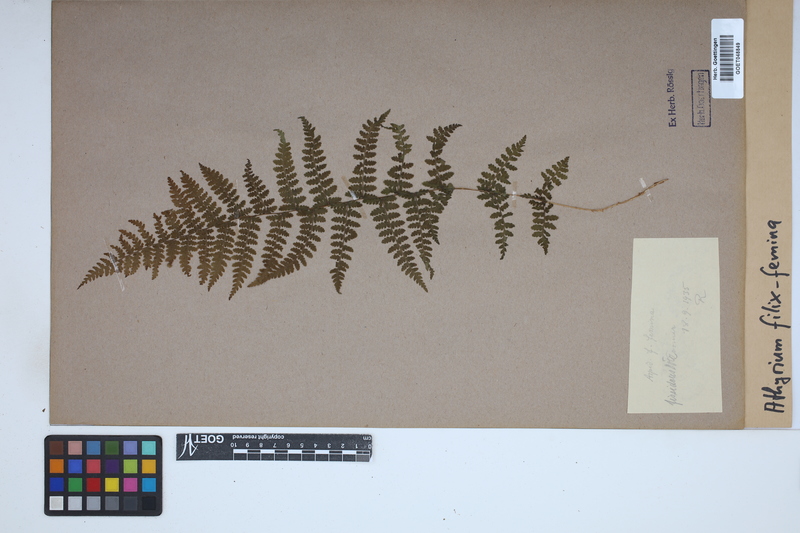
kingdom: Plantae
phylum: Tracheophyta
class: Polypodiopsida
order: Polypodiales
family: Athyriaceae
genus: Athyrium
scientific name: Athyrium filix-femina
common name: Lady fern
